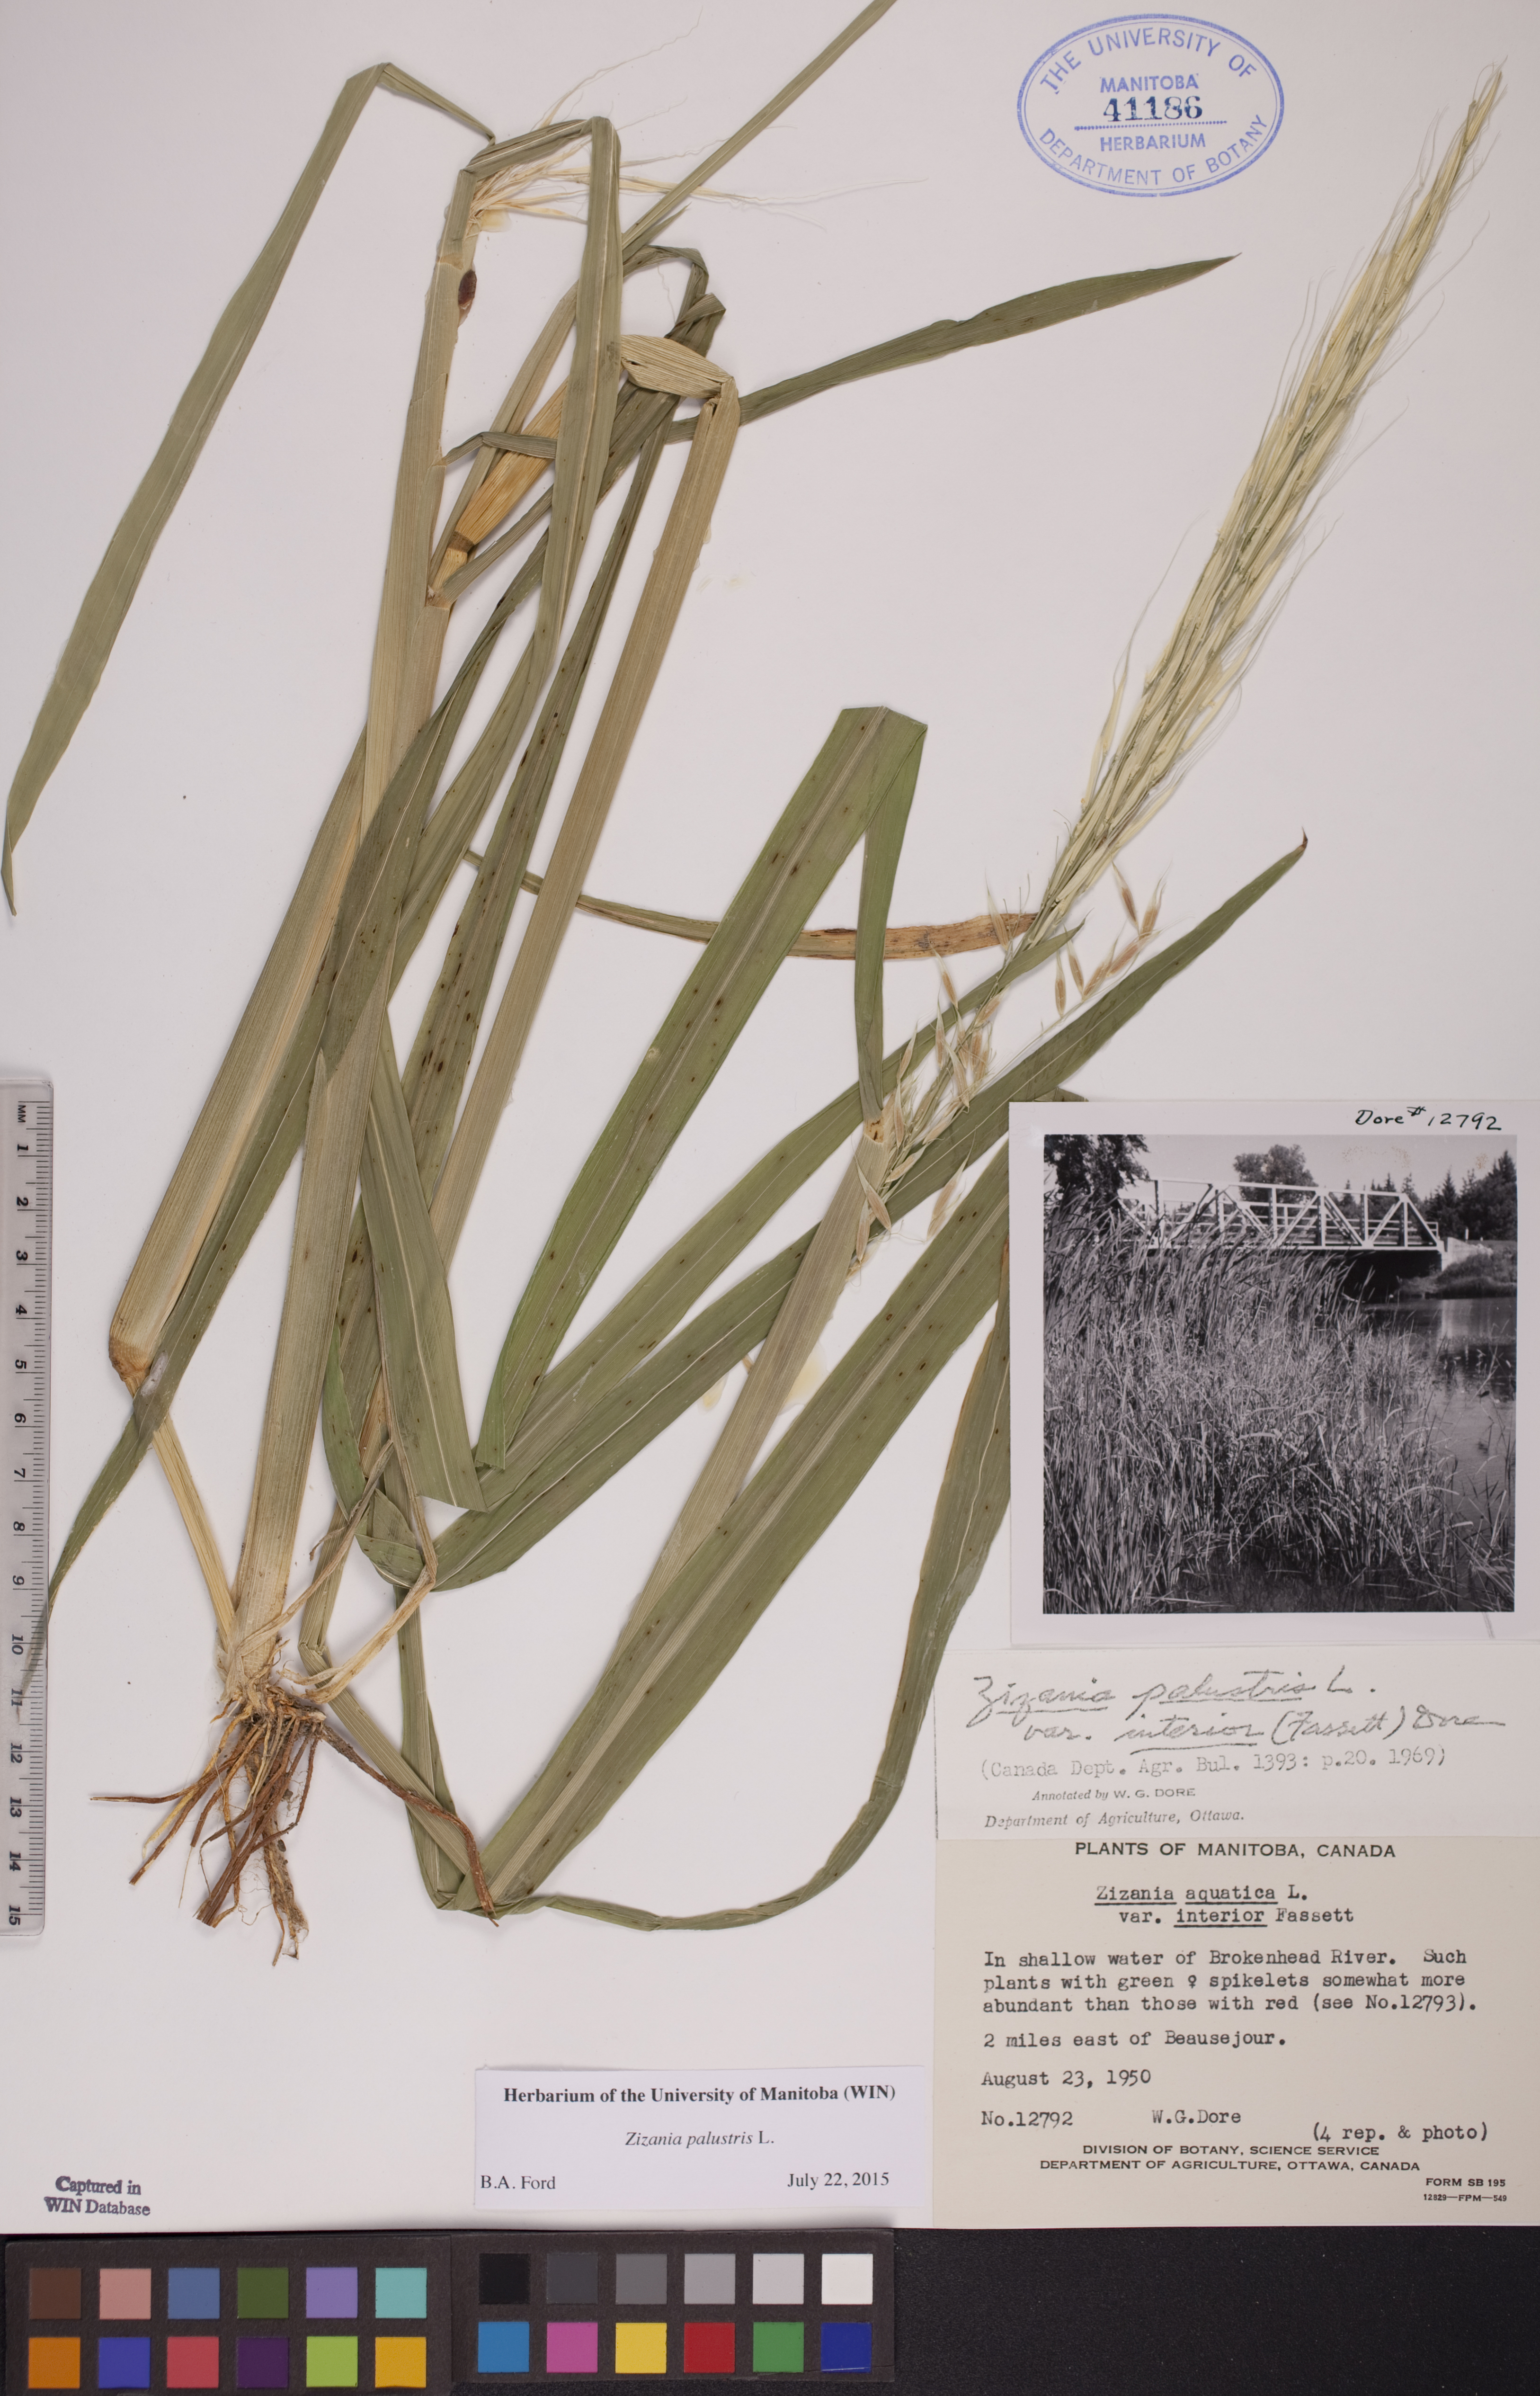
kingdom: Plantae
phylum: Tracheophyta
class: Liliopsida
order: Poales
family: Poaceae
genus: Zizania
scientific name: Zizania palustris
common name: Northern wild rice
